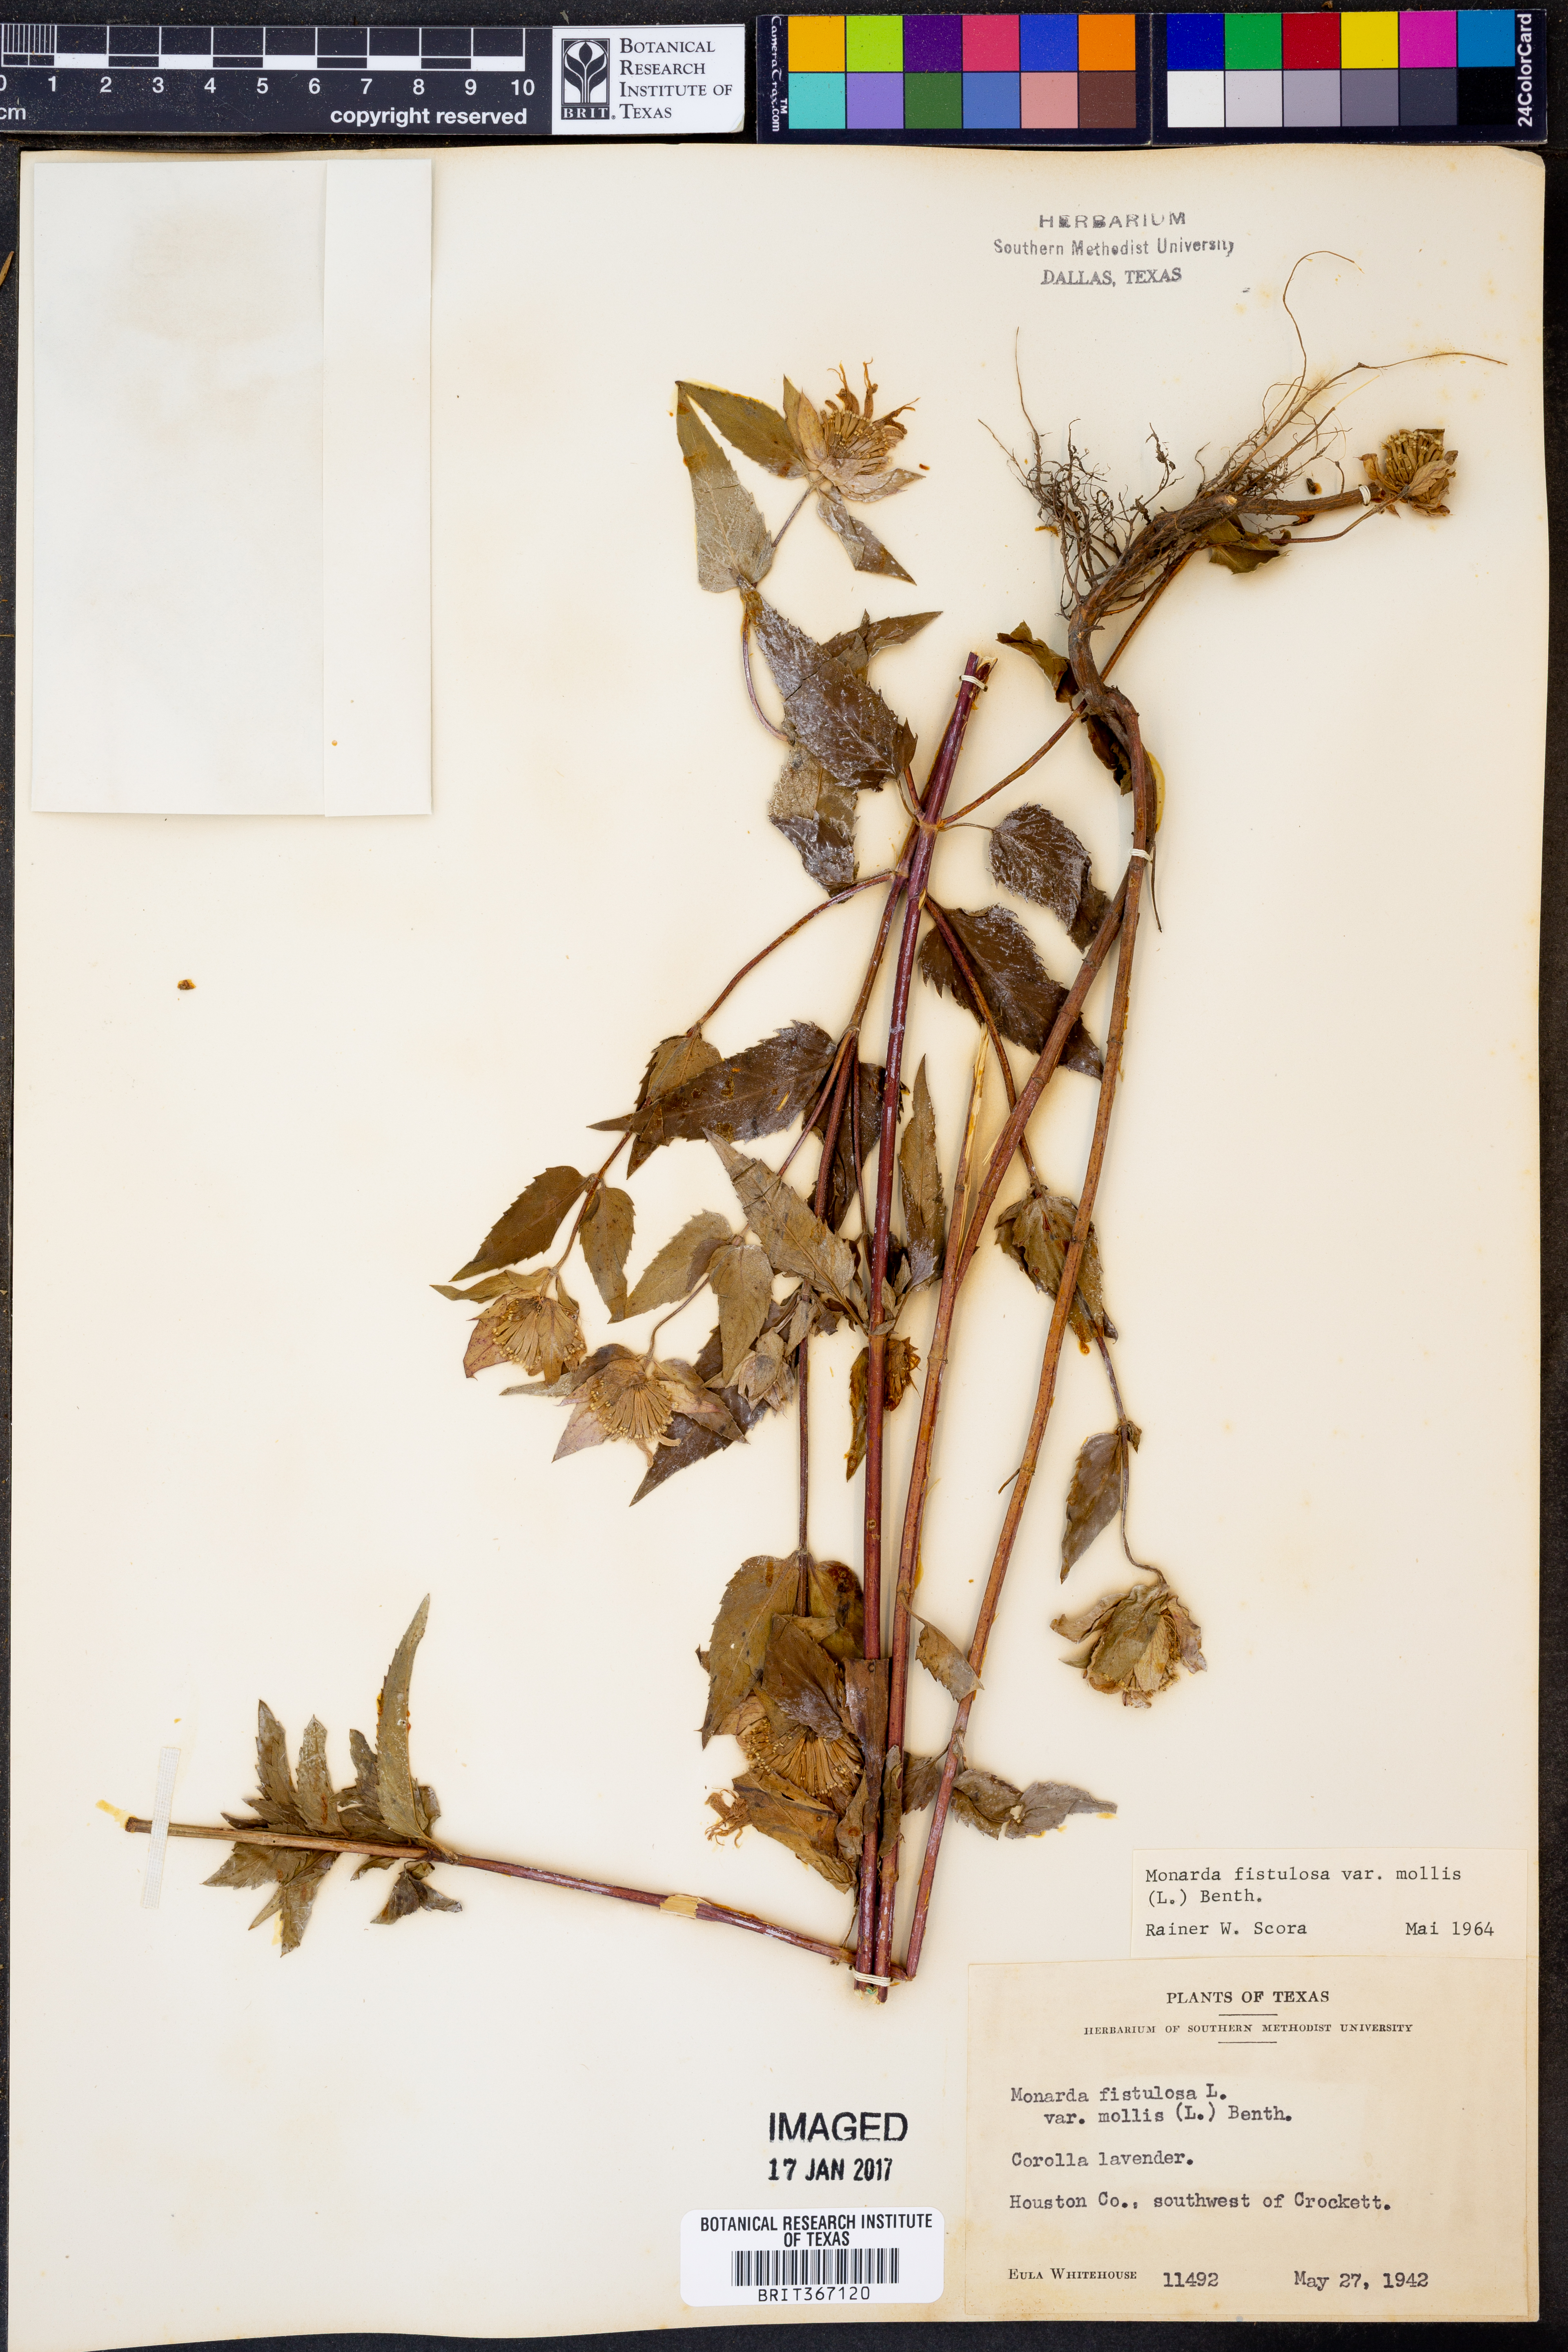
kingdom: Plantae
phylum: Tracheophyta
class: Magnoliopsida
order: Lamiales
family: Lamiaceae
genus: Monarda
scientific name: Monarda fistulosa
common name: Purple beebalm
